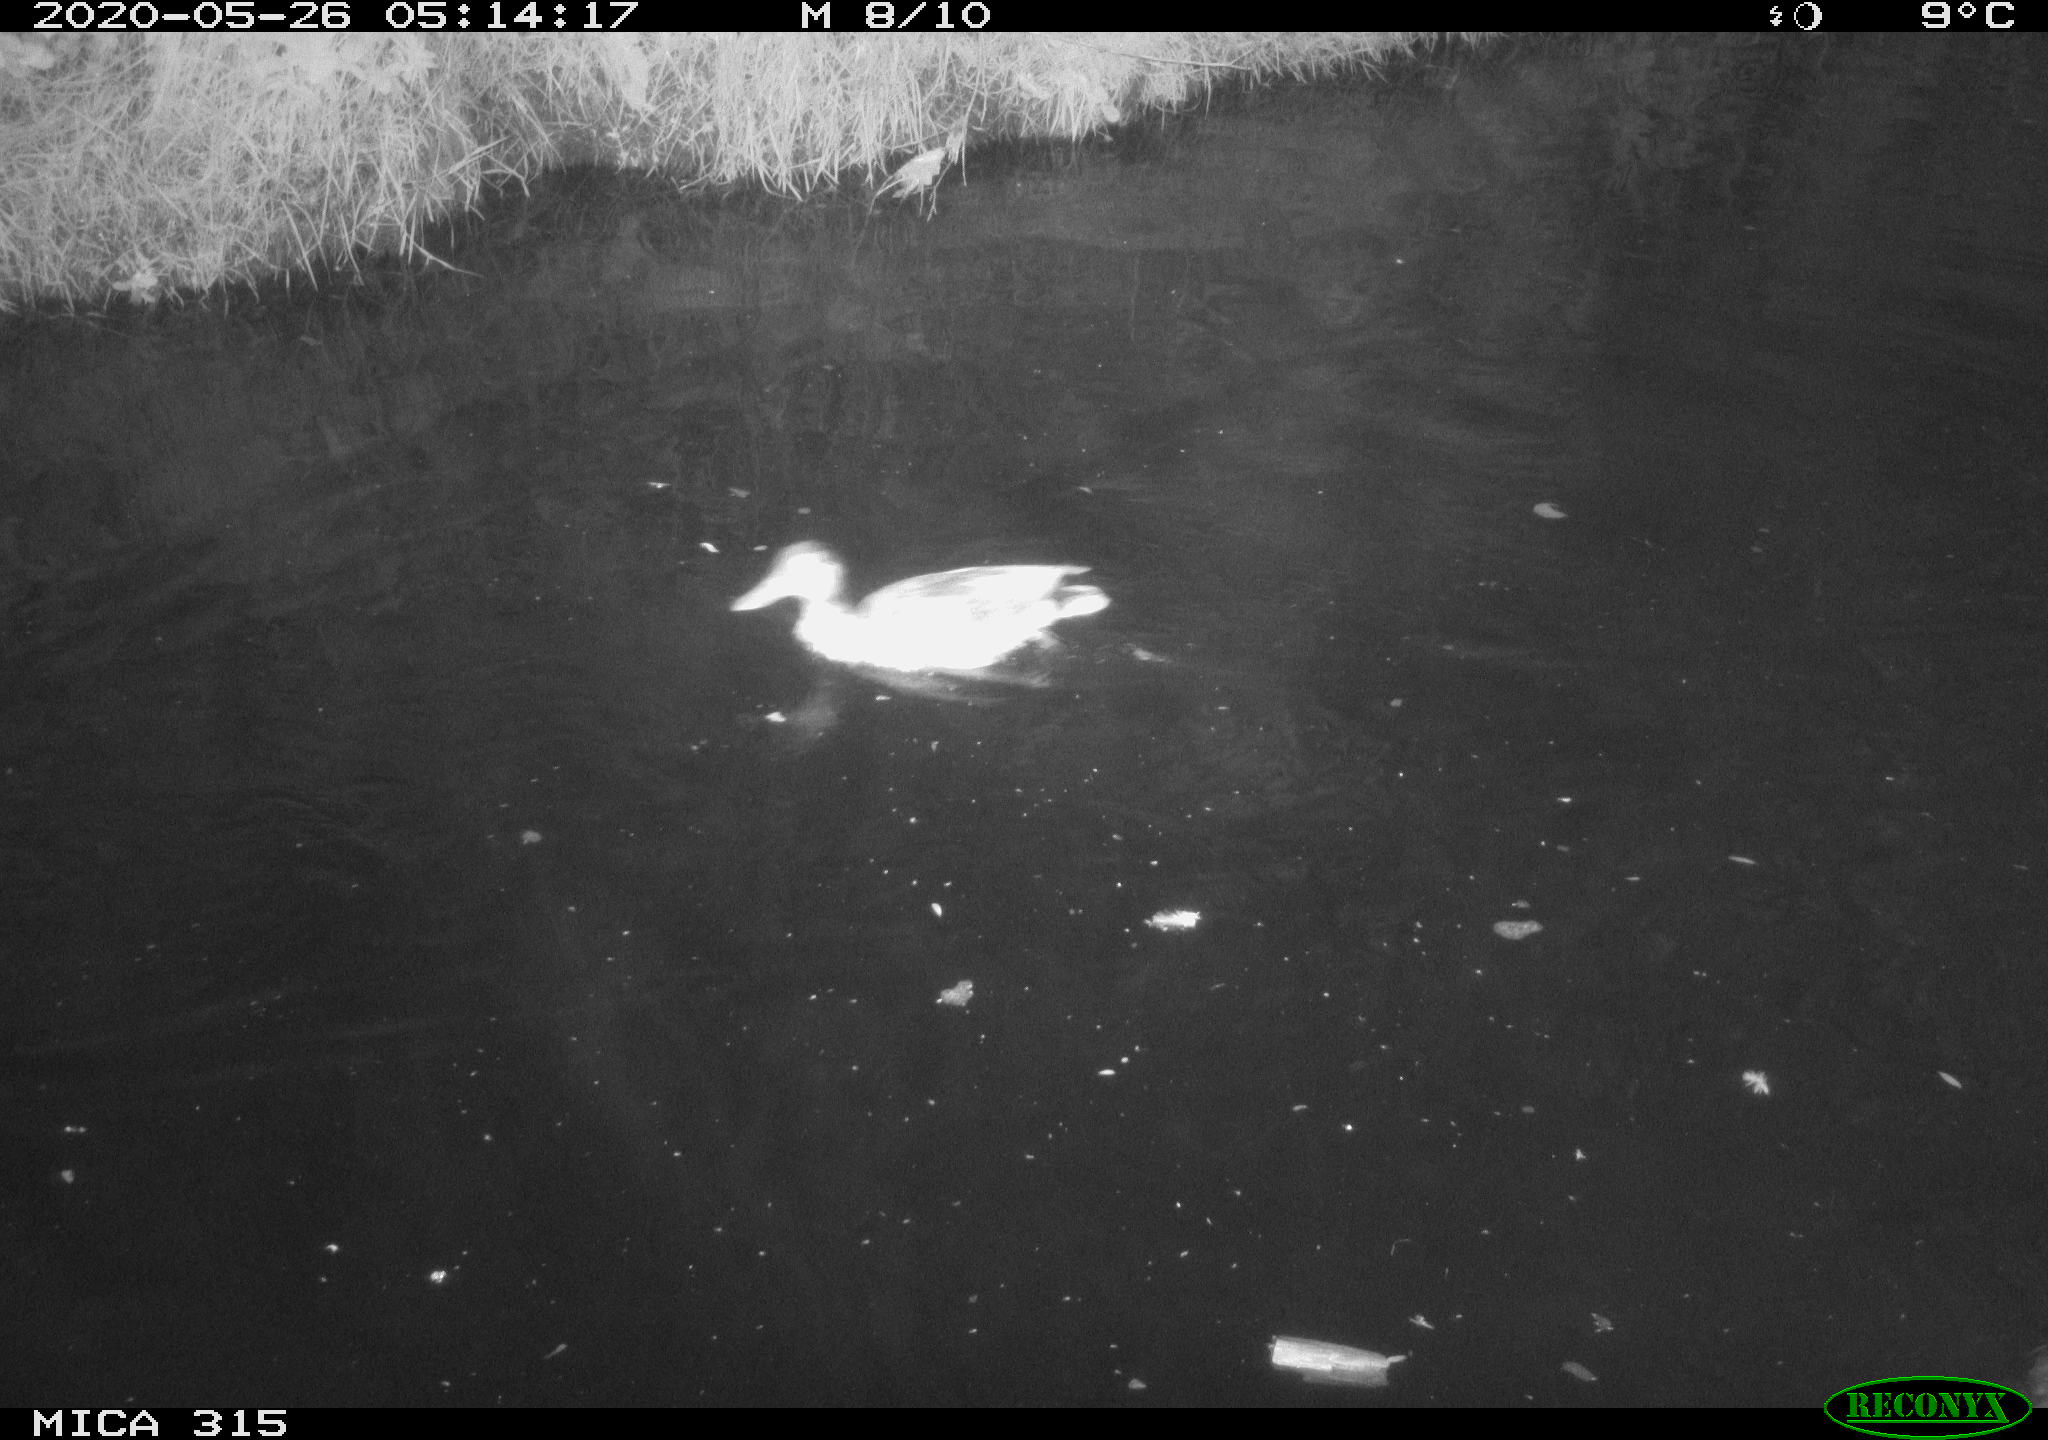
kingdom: Animalia
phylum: Chordata
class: Aves
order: Anseriformes
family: Anatidae
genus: Anas
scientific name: Anas platyrhynchos
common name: Mallard
